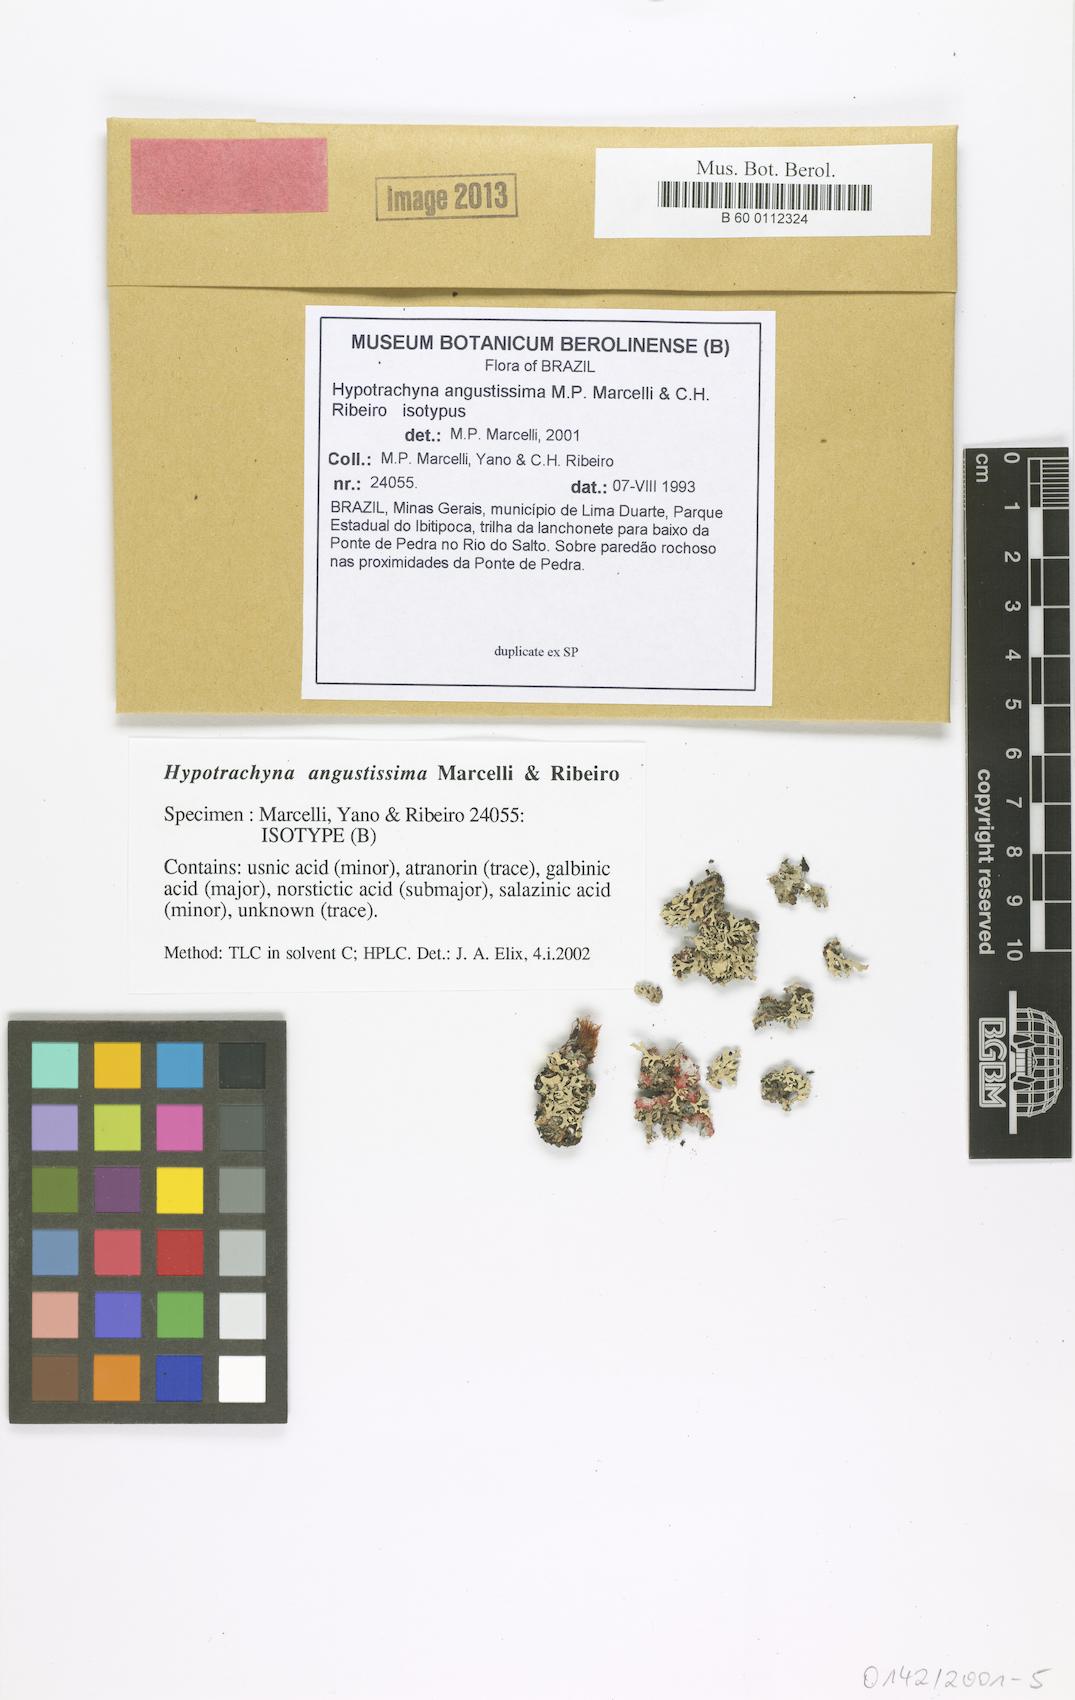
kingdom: Fungi
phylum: Ascomycota
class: Lecanoromycetes
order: Lecanorales
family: Parmeliaceae
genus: Hypotrachyna
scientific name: Hypotrachyna angustissima
